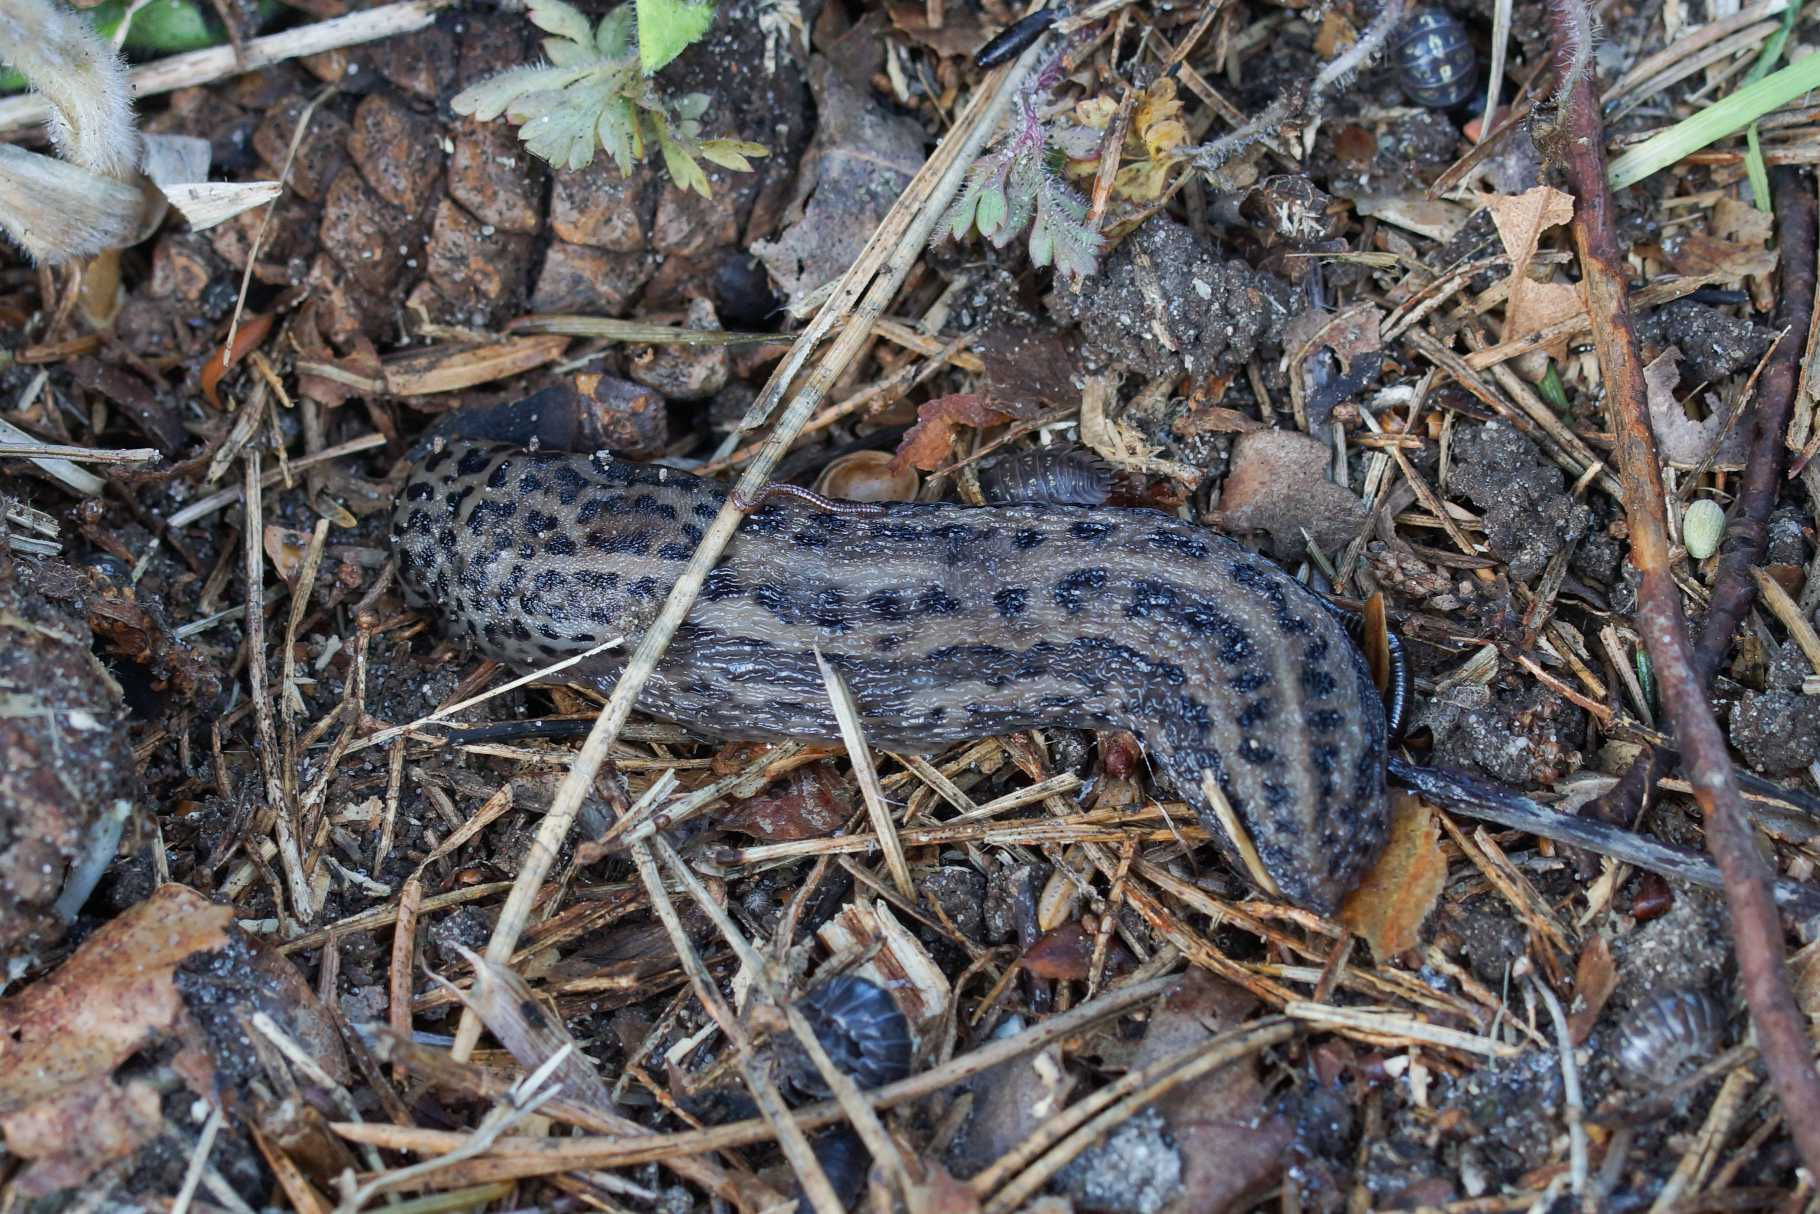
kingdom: Animalia
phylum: Mollusca
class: Gastropoda
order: Stylommatophora
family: Limacidae
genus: Limax
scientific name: Limax maximus
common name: Pantersnegl
